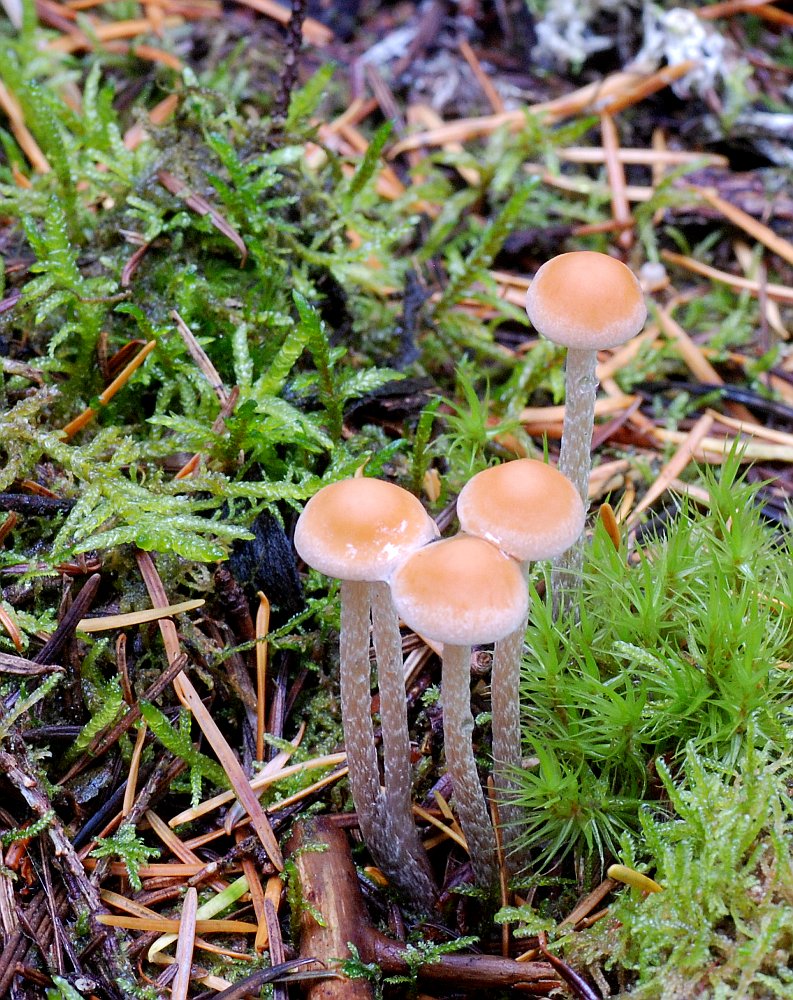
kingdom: Fungi
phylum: Basidiomycota
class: Agaricomycetes
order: Agaricales
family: Strophariaceae
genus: Hypholoma
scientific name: Hypholoma marginatum
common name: enlig svovlhat
